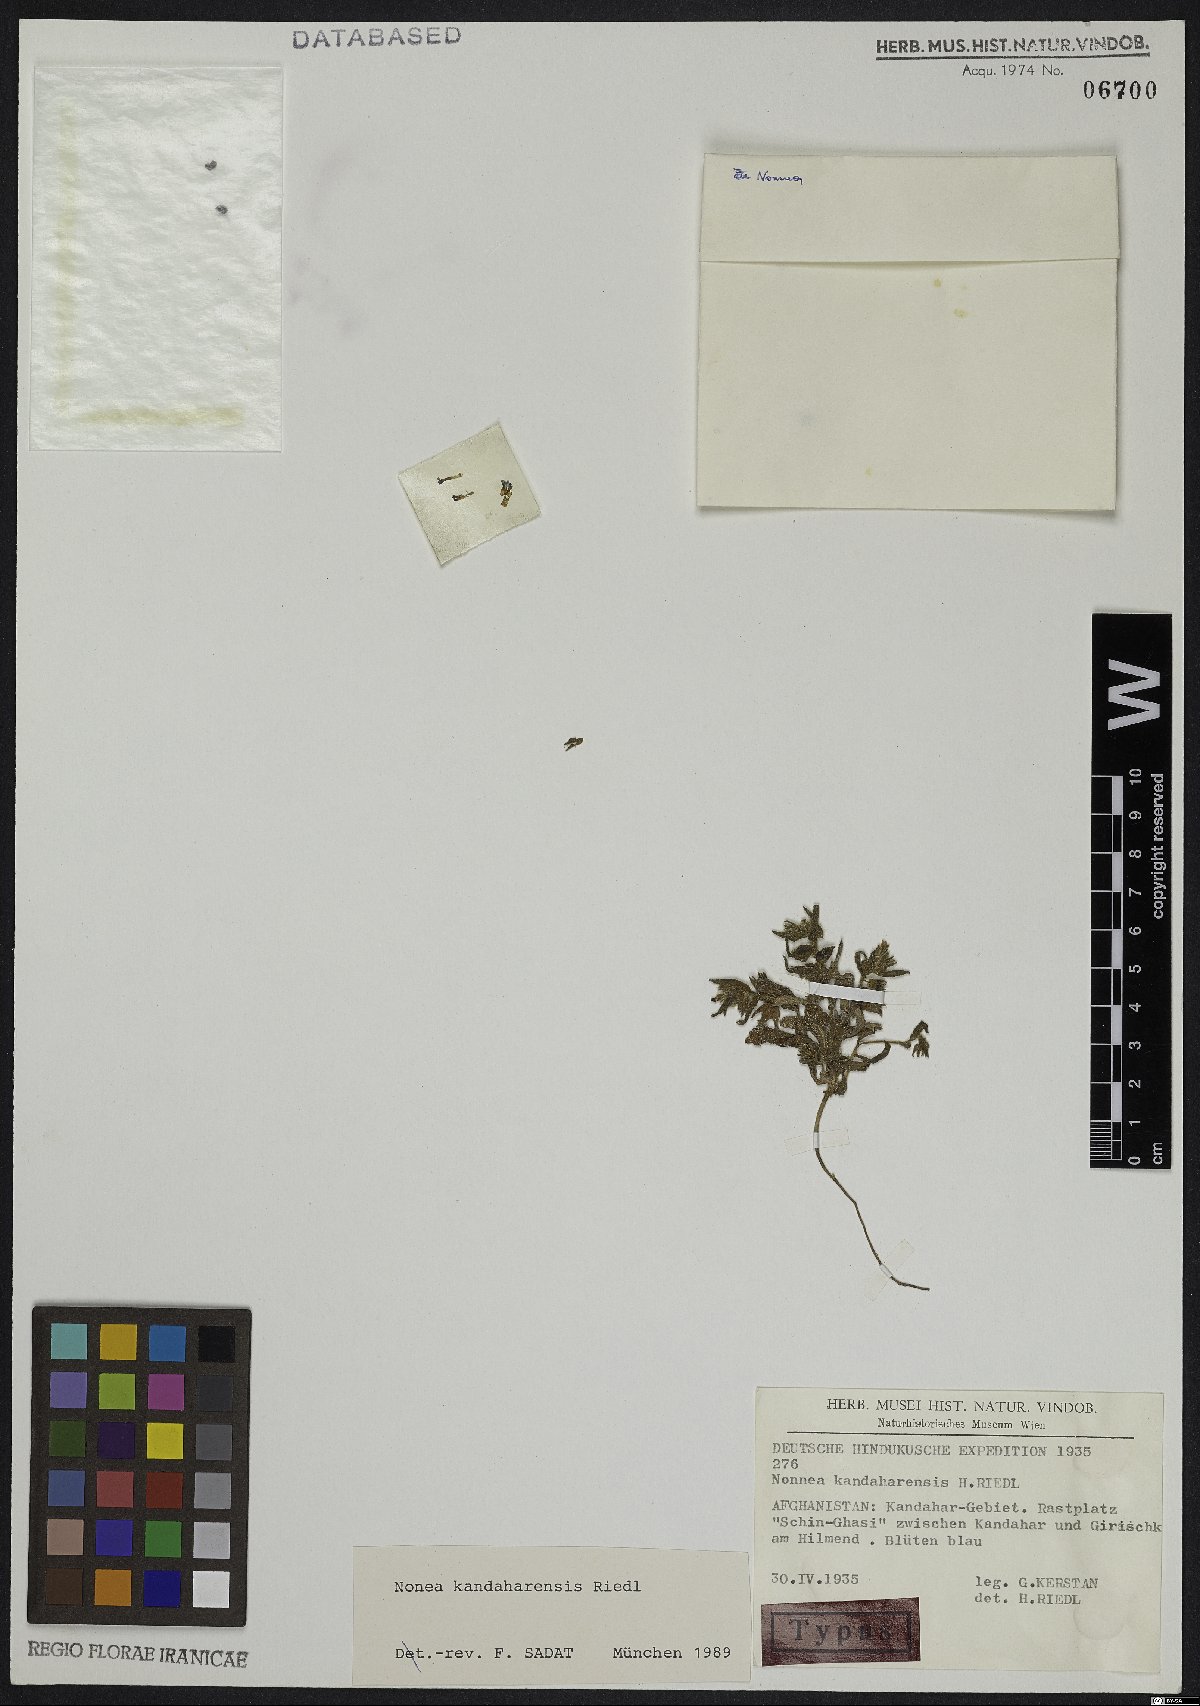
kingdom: Plantae
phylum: Tracheophyta
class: Magnoliopsida
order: Boraginales
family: Boraginaceae
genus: Nonea
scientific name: Nonea kandaharensis
